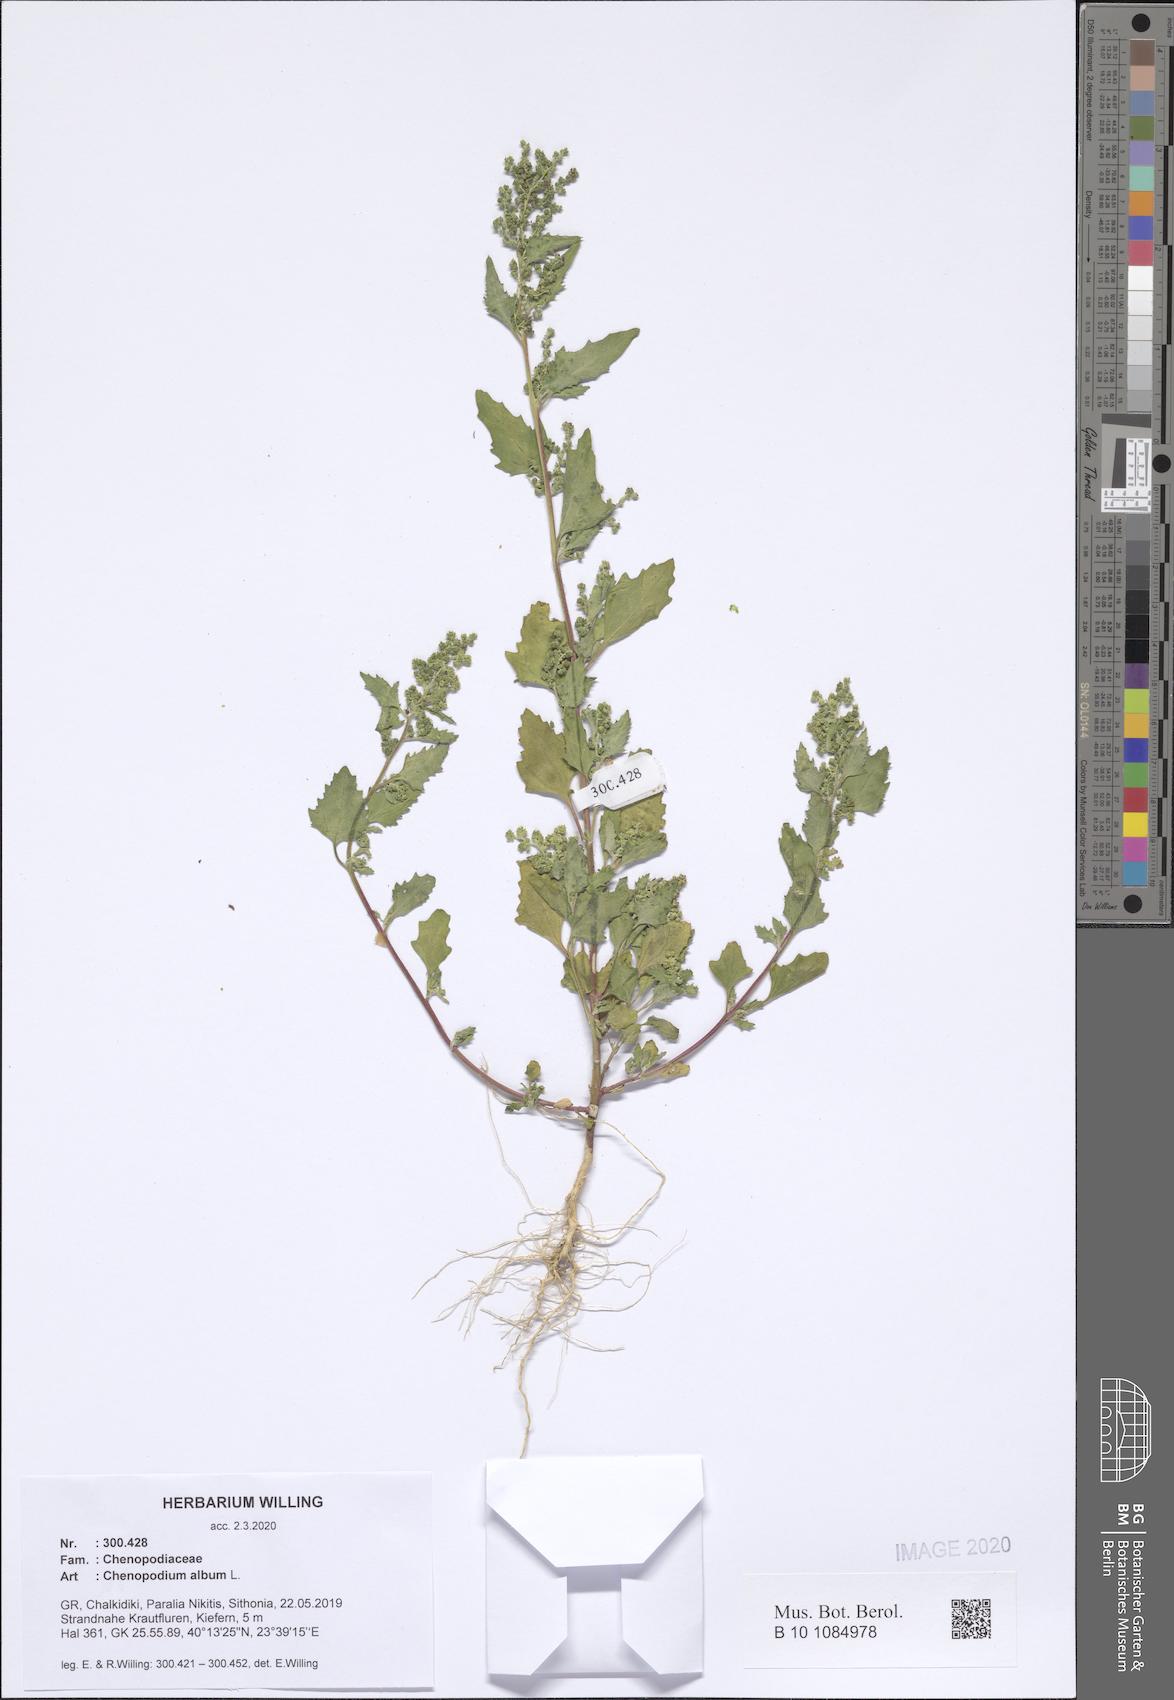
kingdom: Plantae
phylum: Tracheophyta
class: Magnoliopsida
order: Caryophyllales
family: Amaranthaceae
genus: Chenopodium
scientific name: Chenopodium album
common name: Fat-hen
